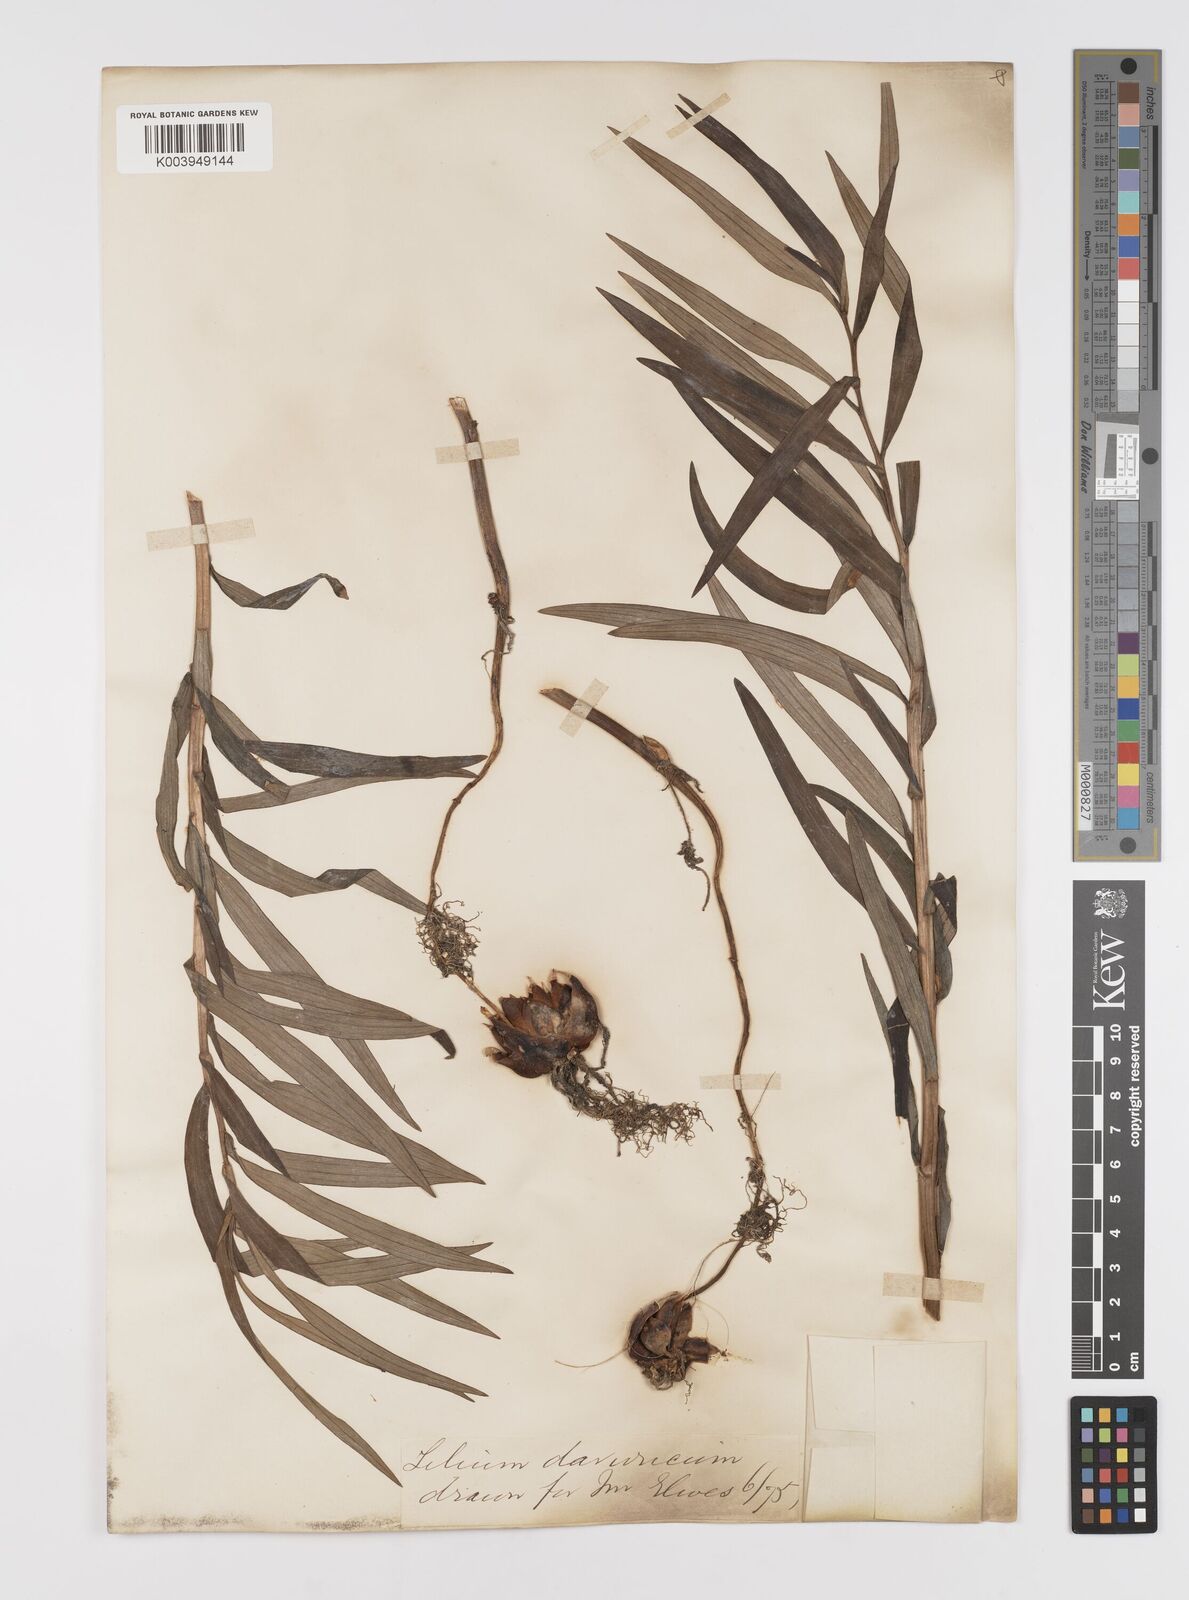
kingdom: Plantae
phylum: Tracheophyta
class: Liliopsida
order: Liliales
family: Liliaceae
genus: Lilium
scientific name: Lilium pensylvanicum
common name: Candlestick lily
